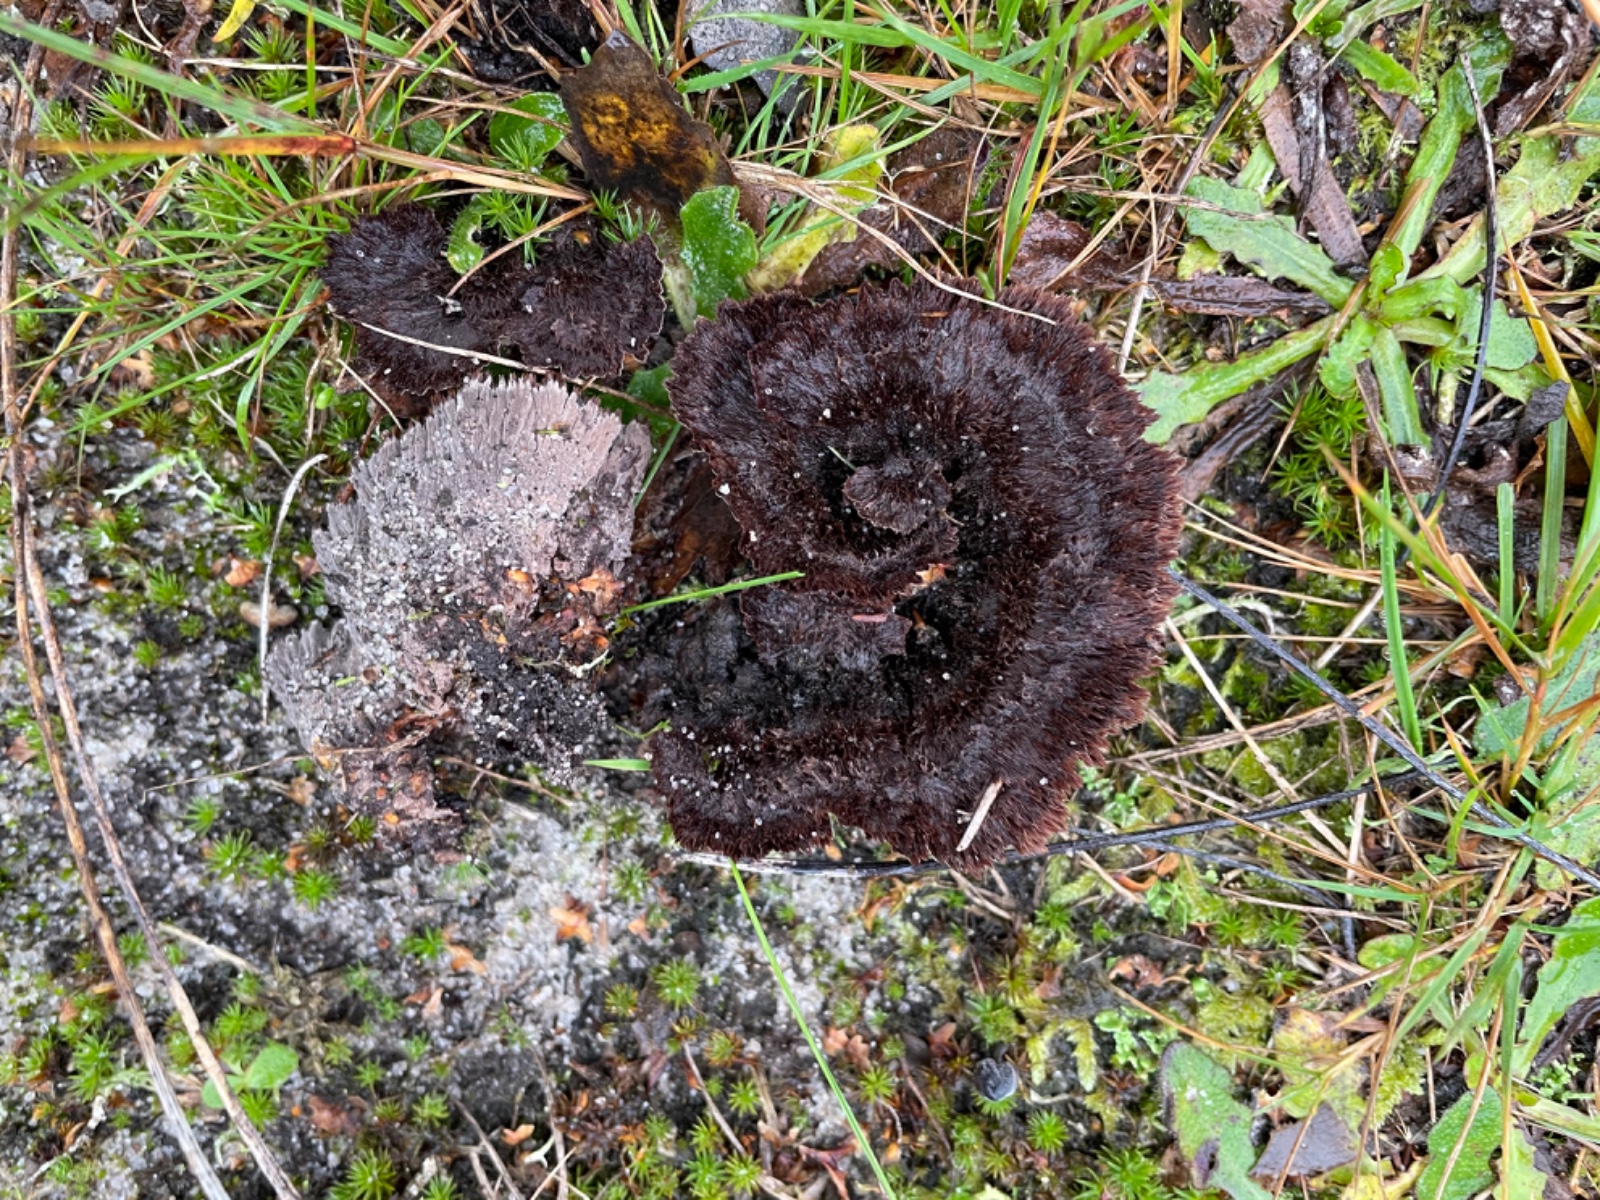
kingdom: Fungi
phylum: Basidiomycota
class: Agaricomycetes
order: Thelephorales
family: Thelephoraceae
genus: Thelephora
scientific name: Thelephora terrestris
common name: fliget frynsesvamp
